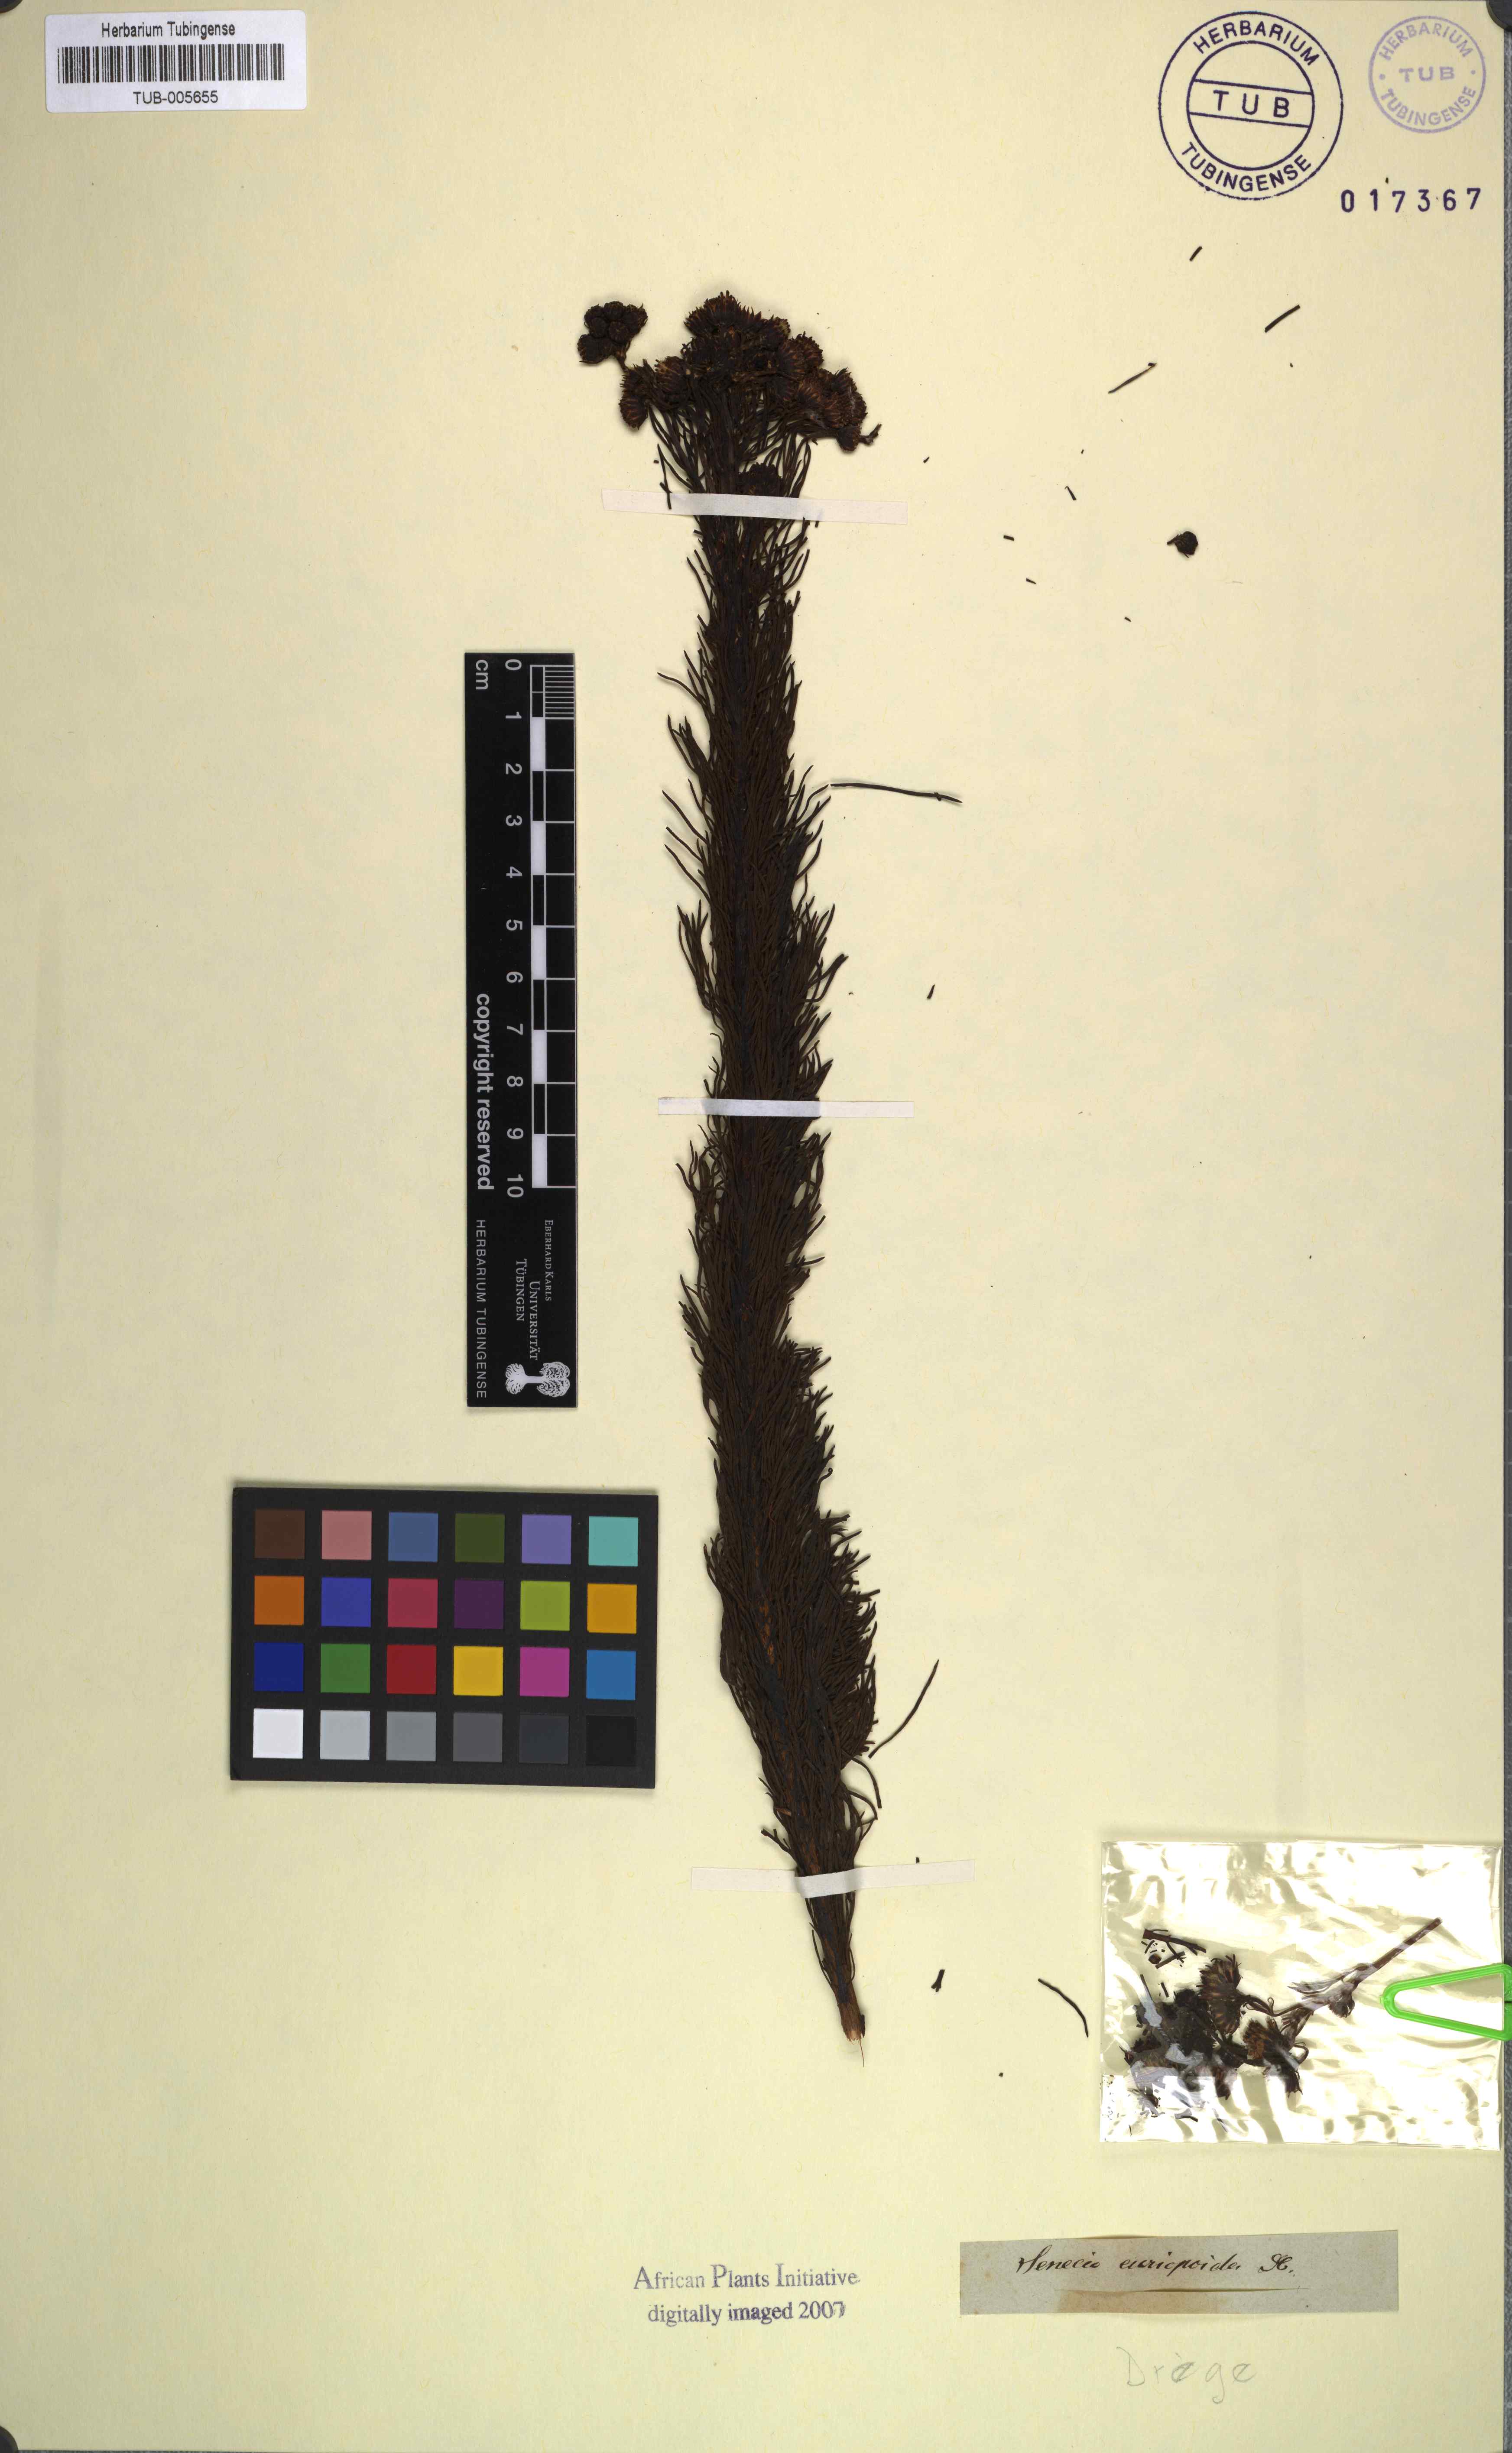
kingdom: Plantae
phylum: Tracheophyta
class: Magnoliopsida
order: Asterales
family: Asteraceae
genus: Senecio
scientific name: Senecio euriopoides
